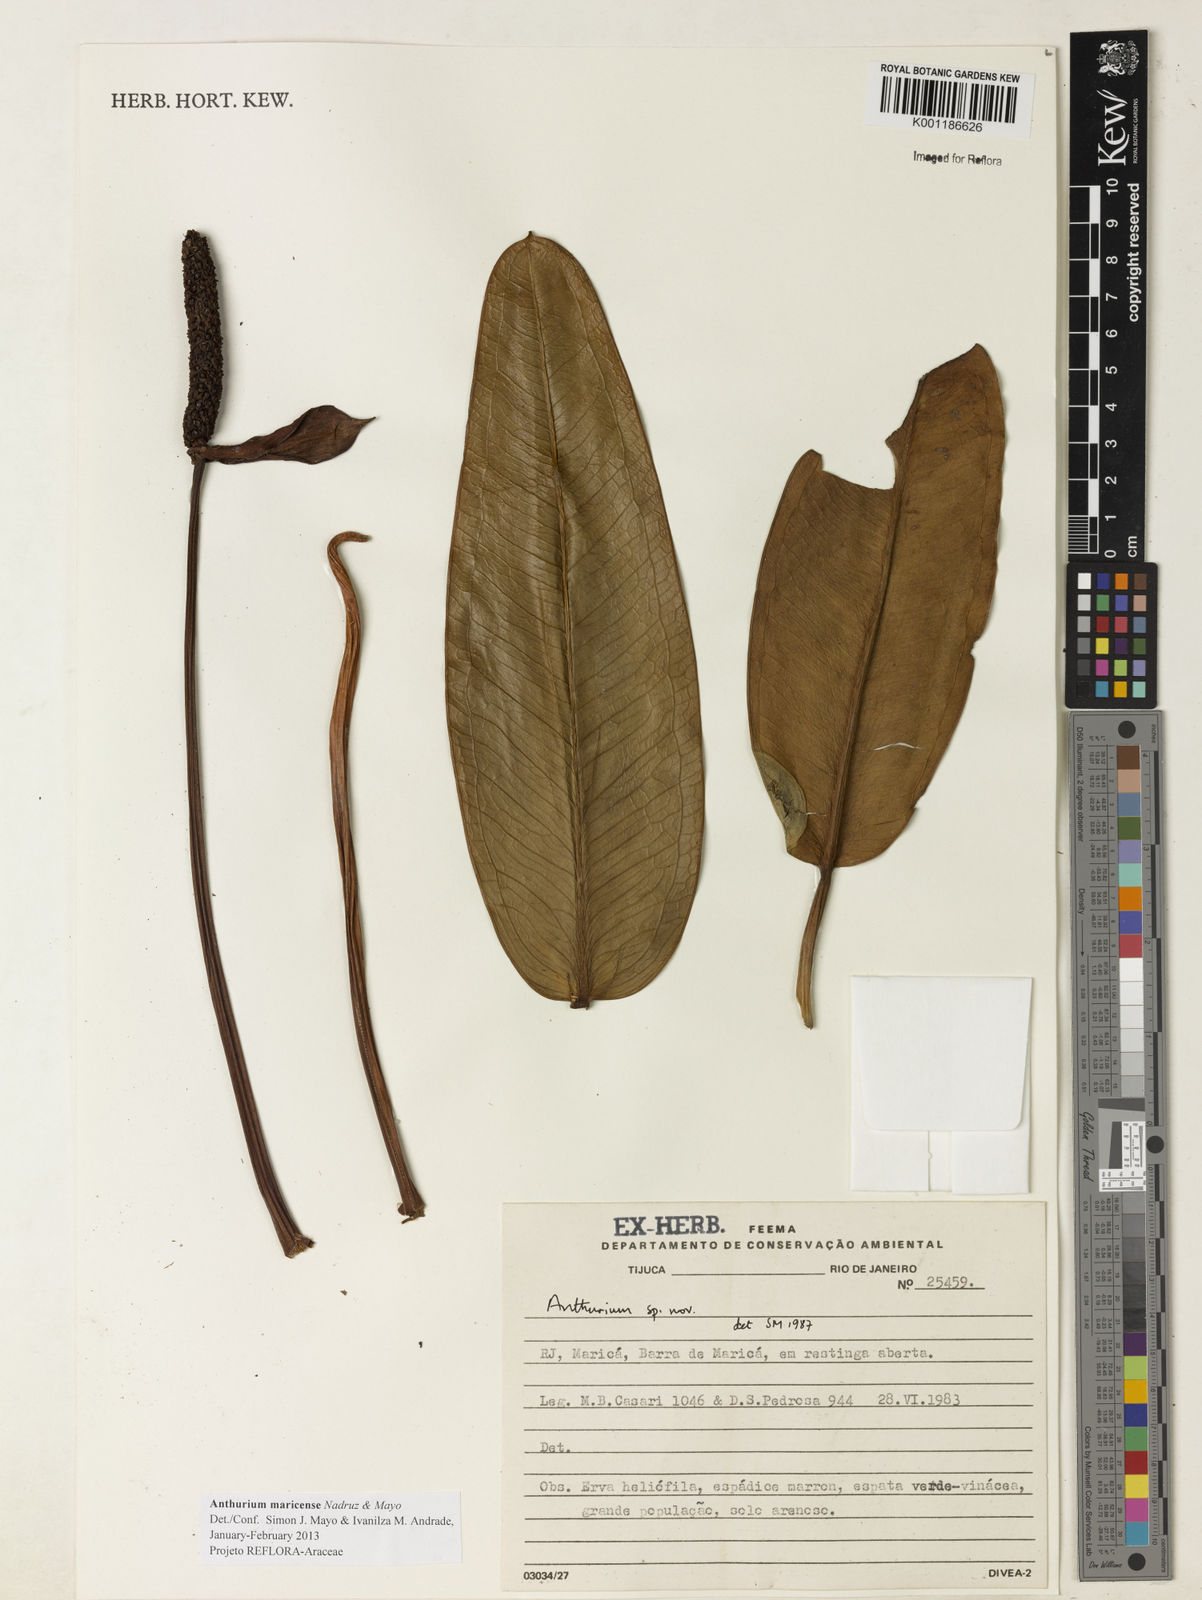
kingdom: Plantae
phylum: Tracheophyta
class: Liliopsida
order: Alismatales
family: Araceae
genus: Anthurium
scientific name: Anthurium maricense
